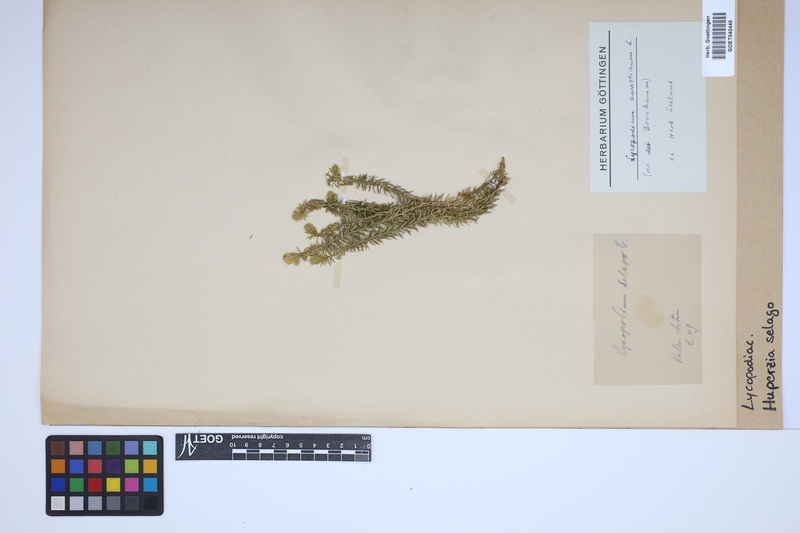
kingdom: Plantae
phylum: Tracheophyta
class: Lycopodiopsida
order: Lycopodiales
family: Lycopodiaceae
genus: Huperzia
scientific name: Huperzia selago
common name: Northern firmoss
